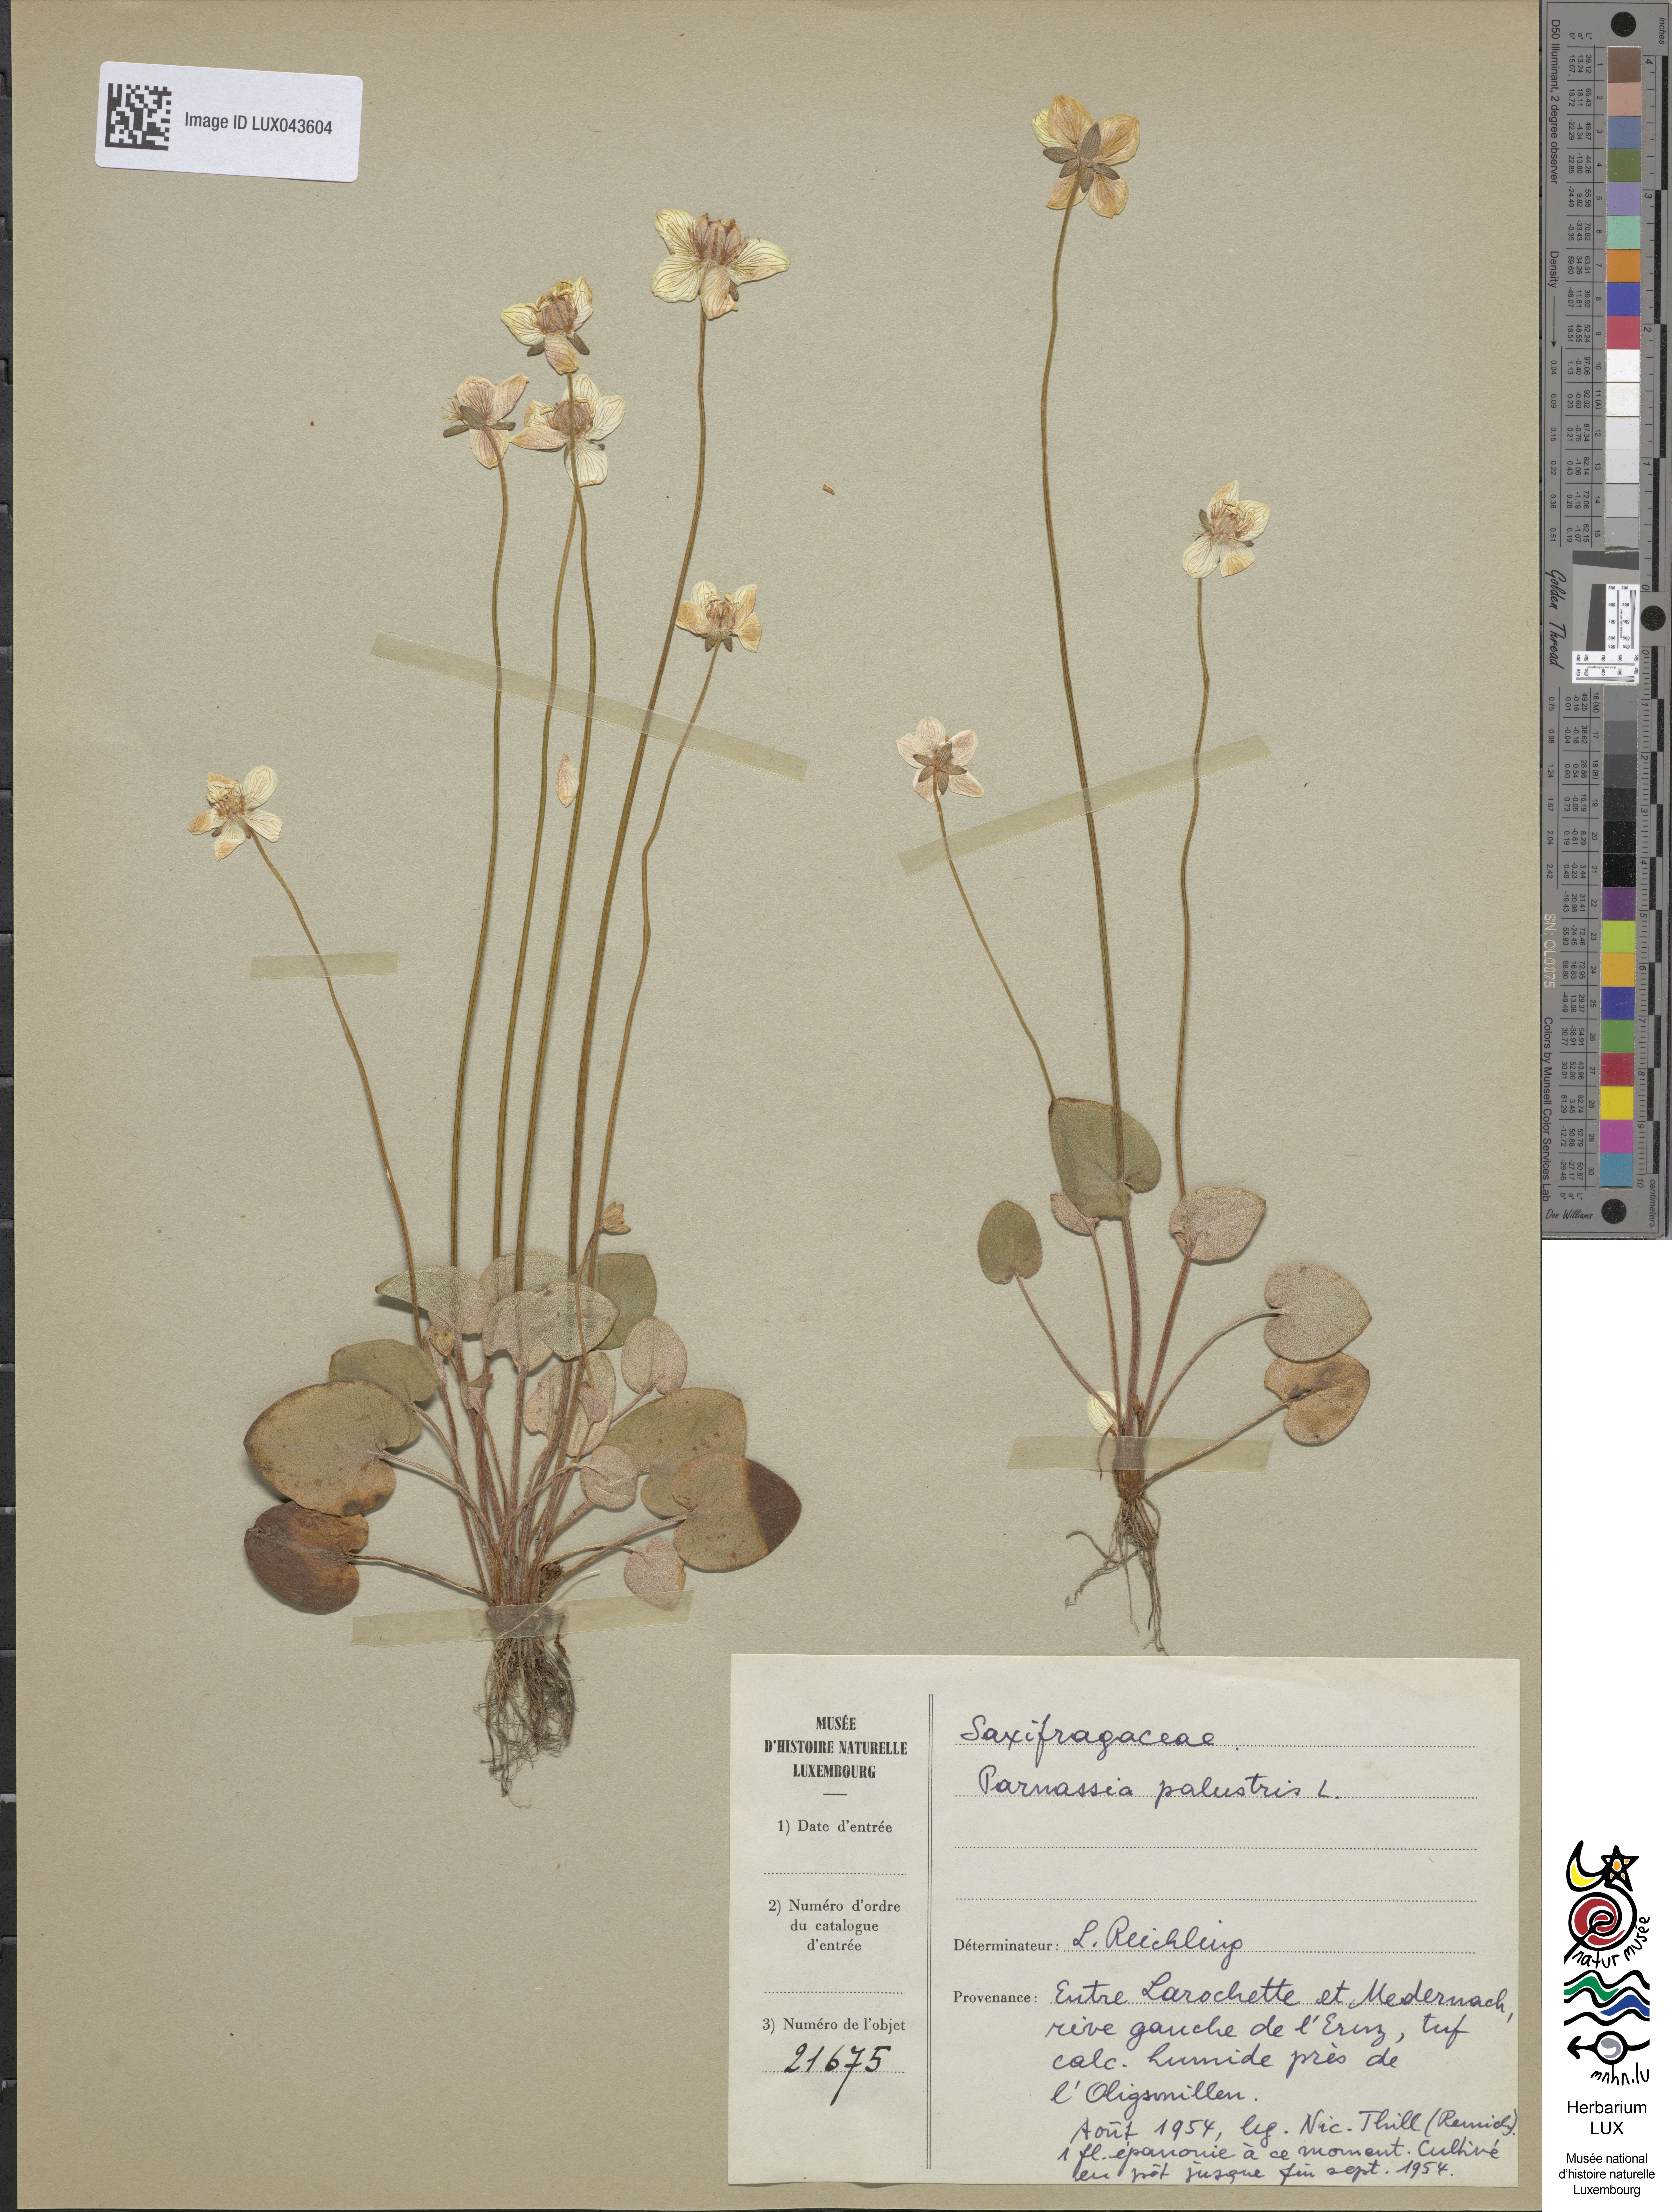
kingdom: Plantae
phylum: Tracheophyta
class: Magnoliopsida
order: Celastrales
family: Parnassiaceae
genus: Parnassia
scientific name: Parnassia palustris
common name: Grass-of-parnassus
